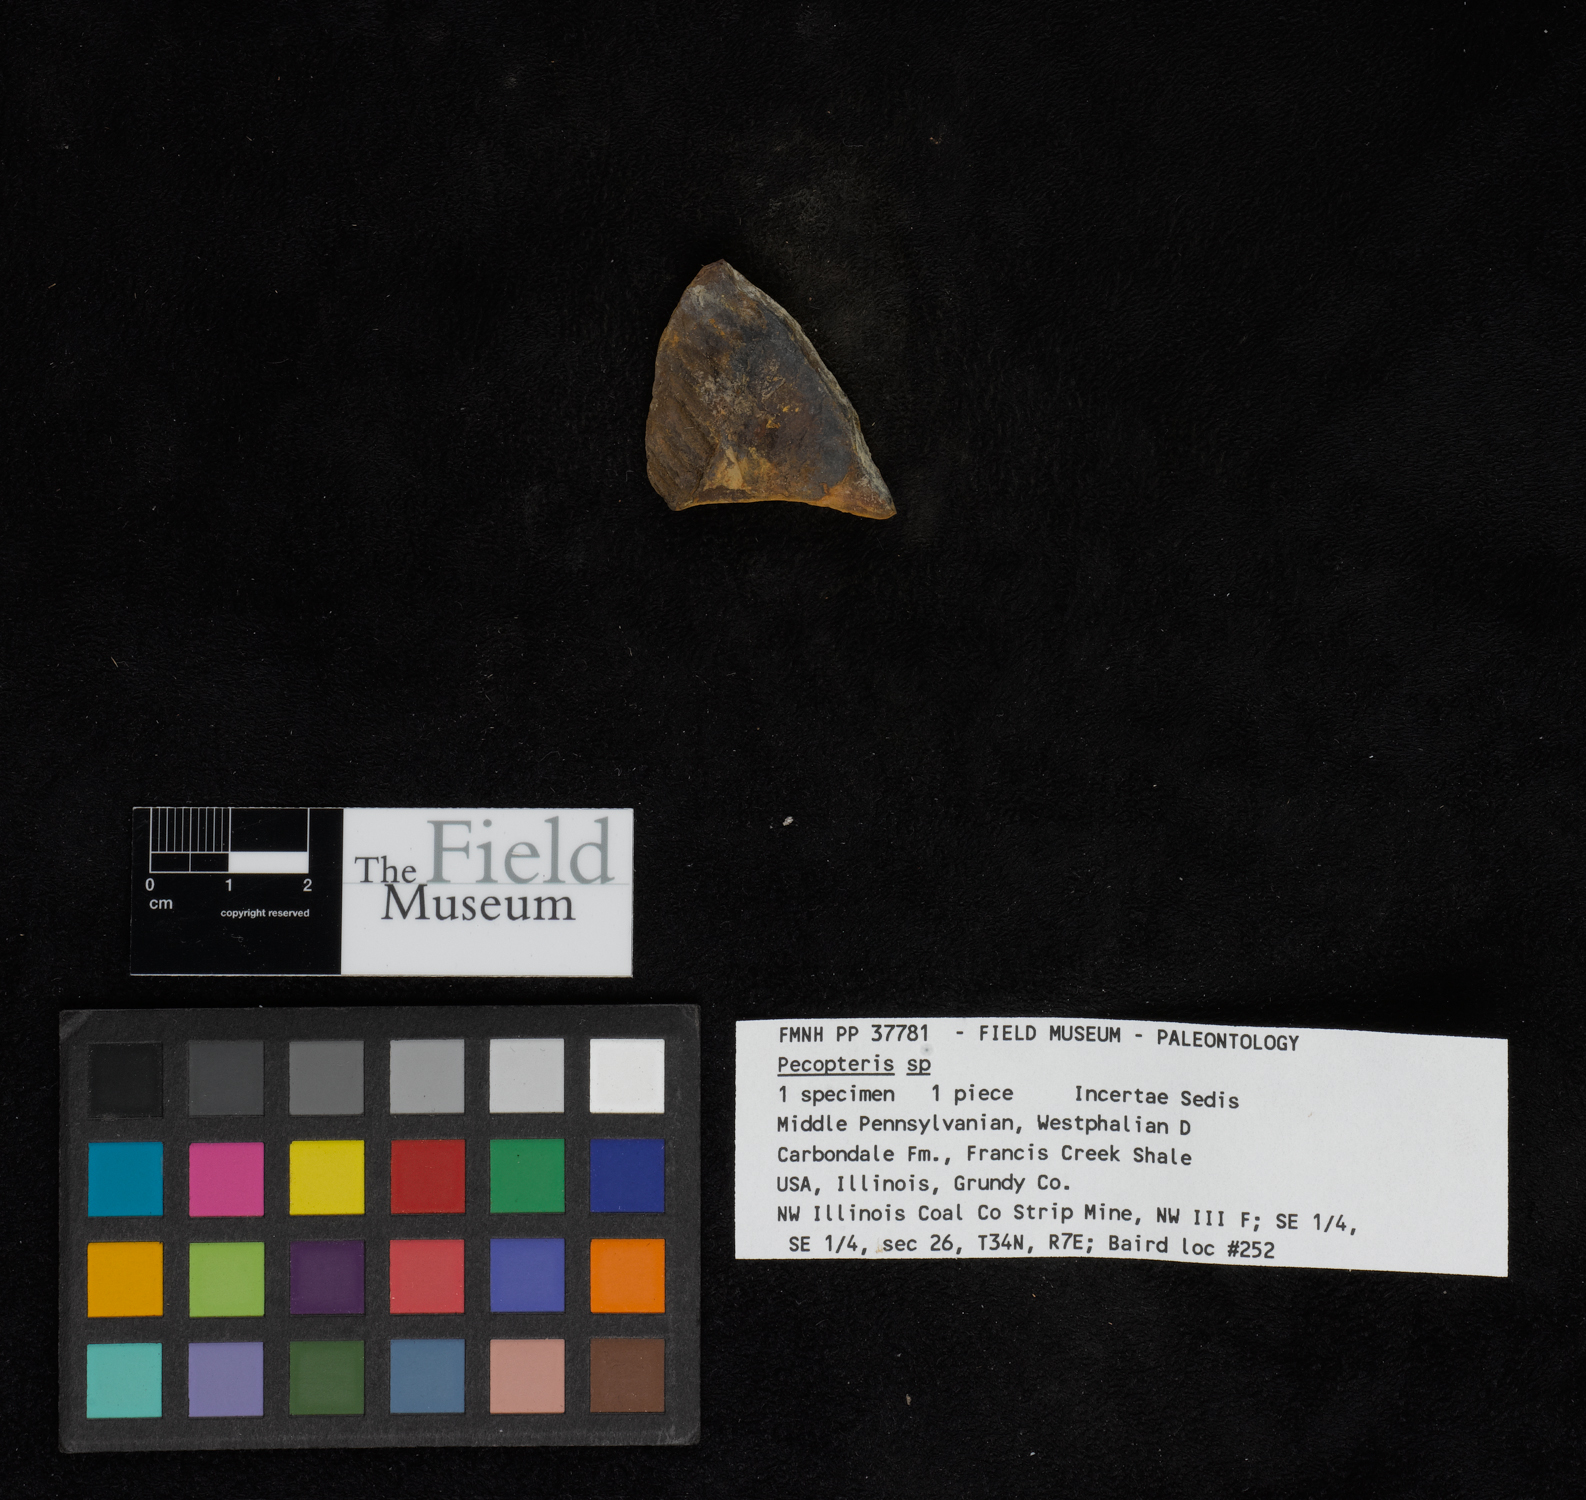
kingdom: Plantae
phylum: Tracheophyta
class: Polypodiopsida
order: Marattiales
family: Asterothecaceae
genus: Pecopteris
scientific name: Pecopteris
